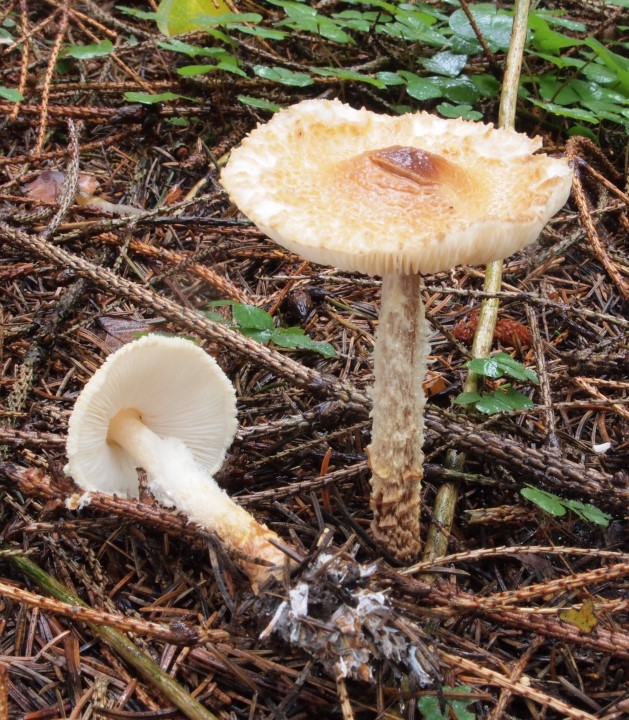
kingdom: Fungi
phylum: Basidiomycota
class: Agaricomycetes
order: Agaricales
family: Agaricaceae
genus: Lepiota
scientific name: Lepiota magnispora
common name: gulfnugget parasolhat
